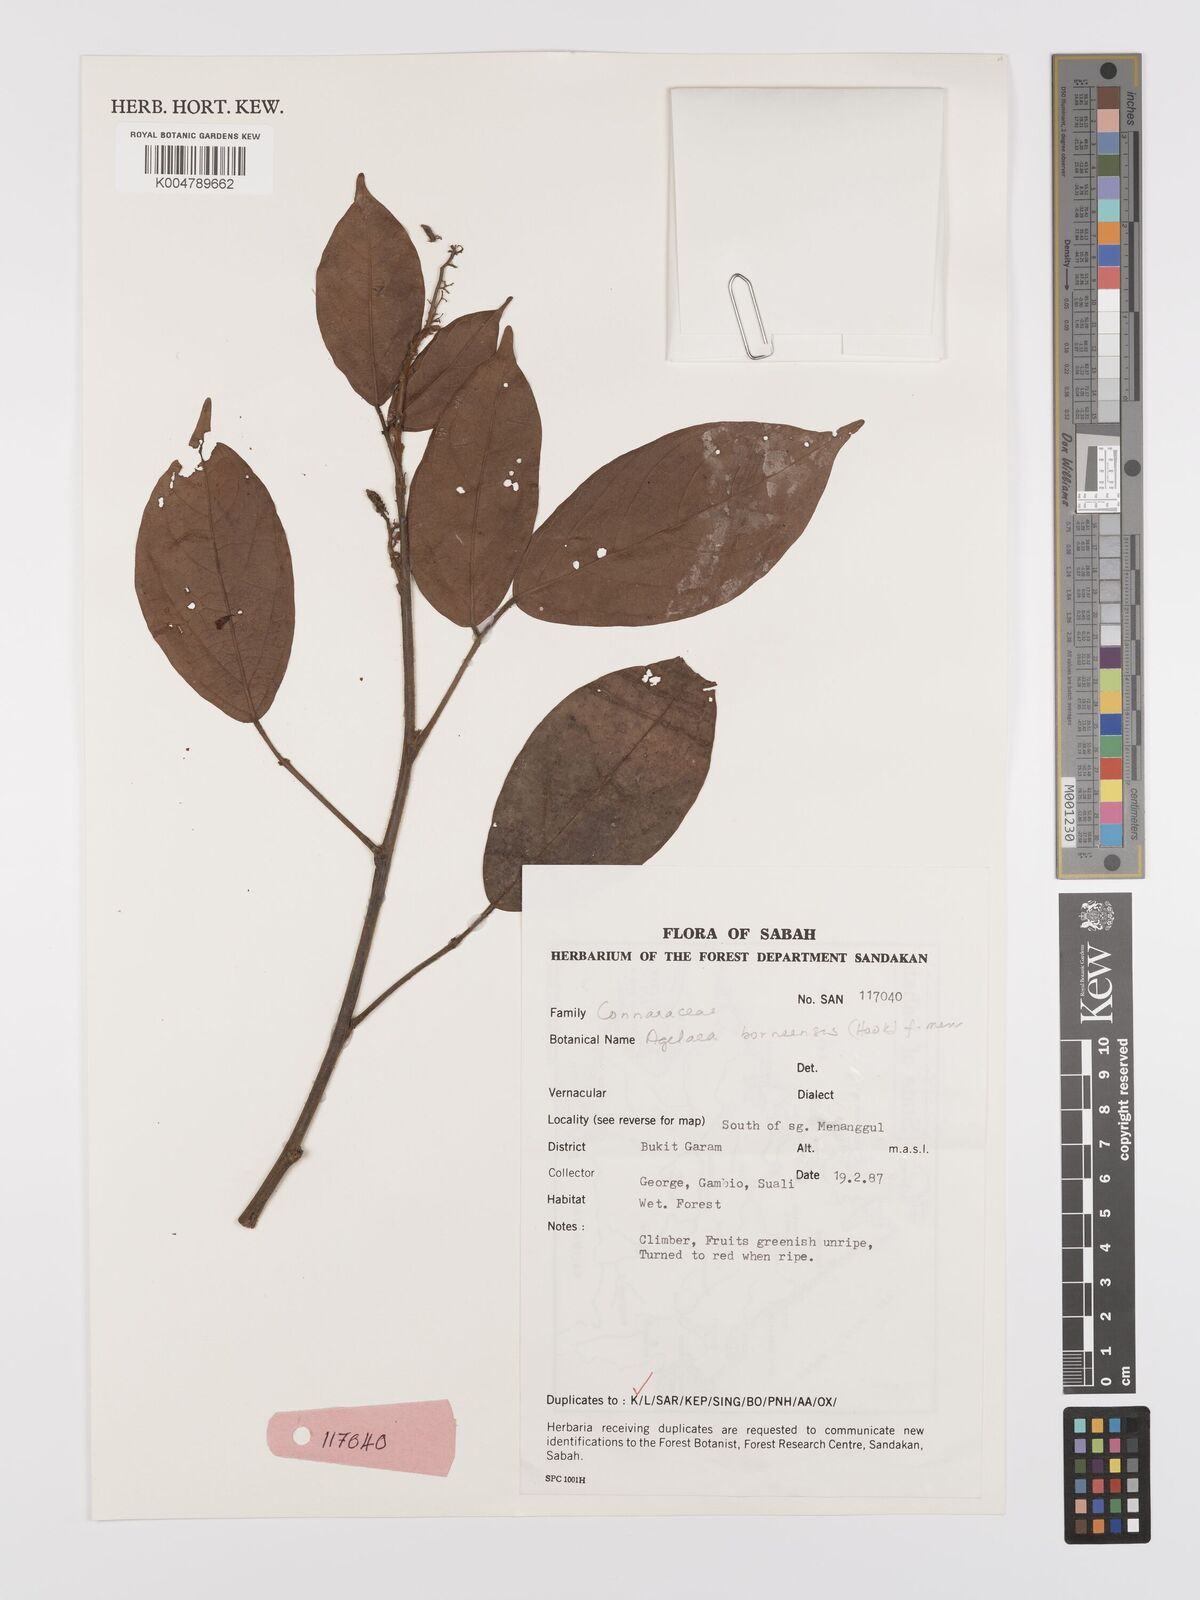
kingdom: Plantae
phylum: Tracheophyta
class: Magnoliopsida
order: Oxalidales
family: Connaraceae
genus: Agelaea
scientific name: Agelaea borneensis
